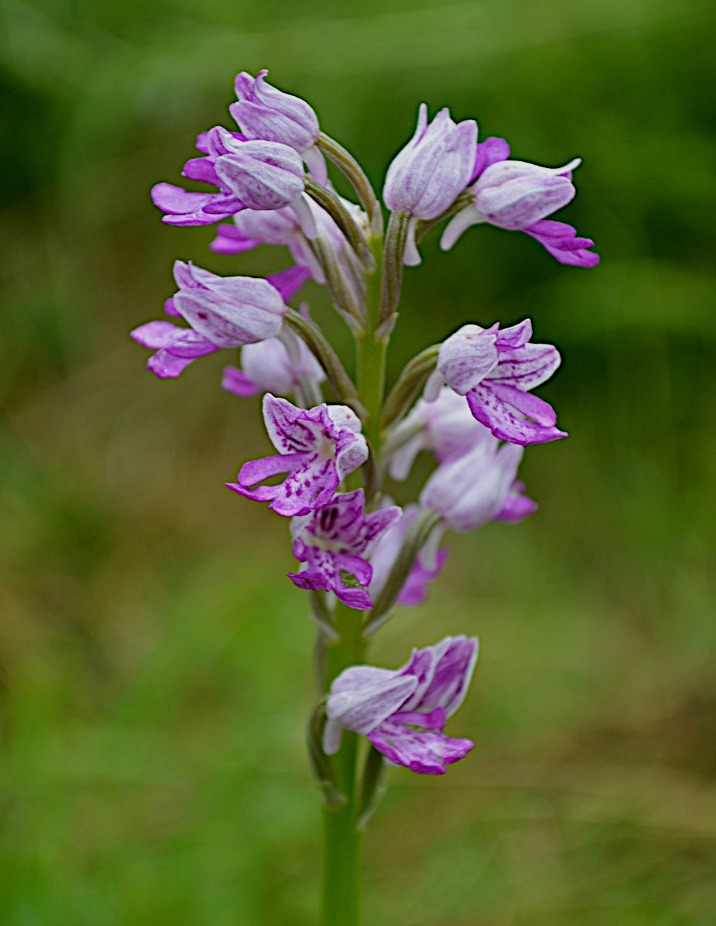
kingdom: Plantae
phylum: Tracheophyta
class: Liliopsida
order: Asparagales
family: Orchidaceae
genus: Orchis
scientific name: Orchis militaris
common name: Ridder-gøgeurt
